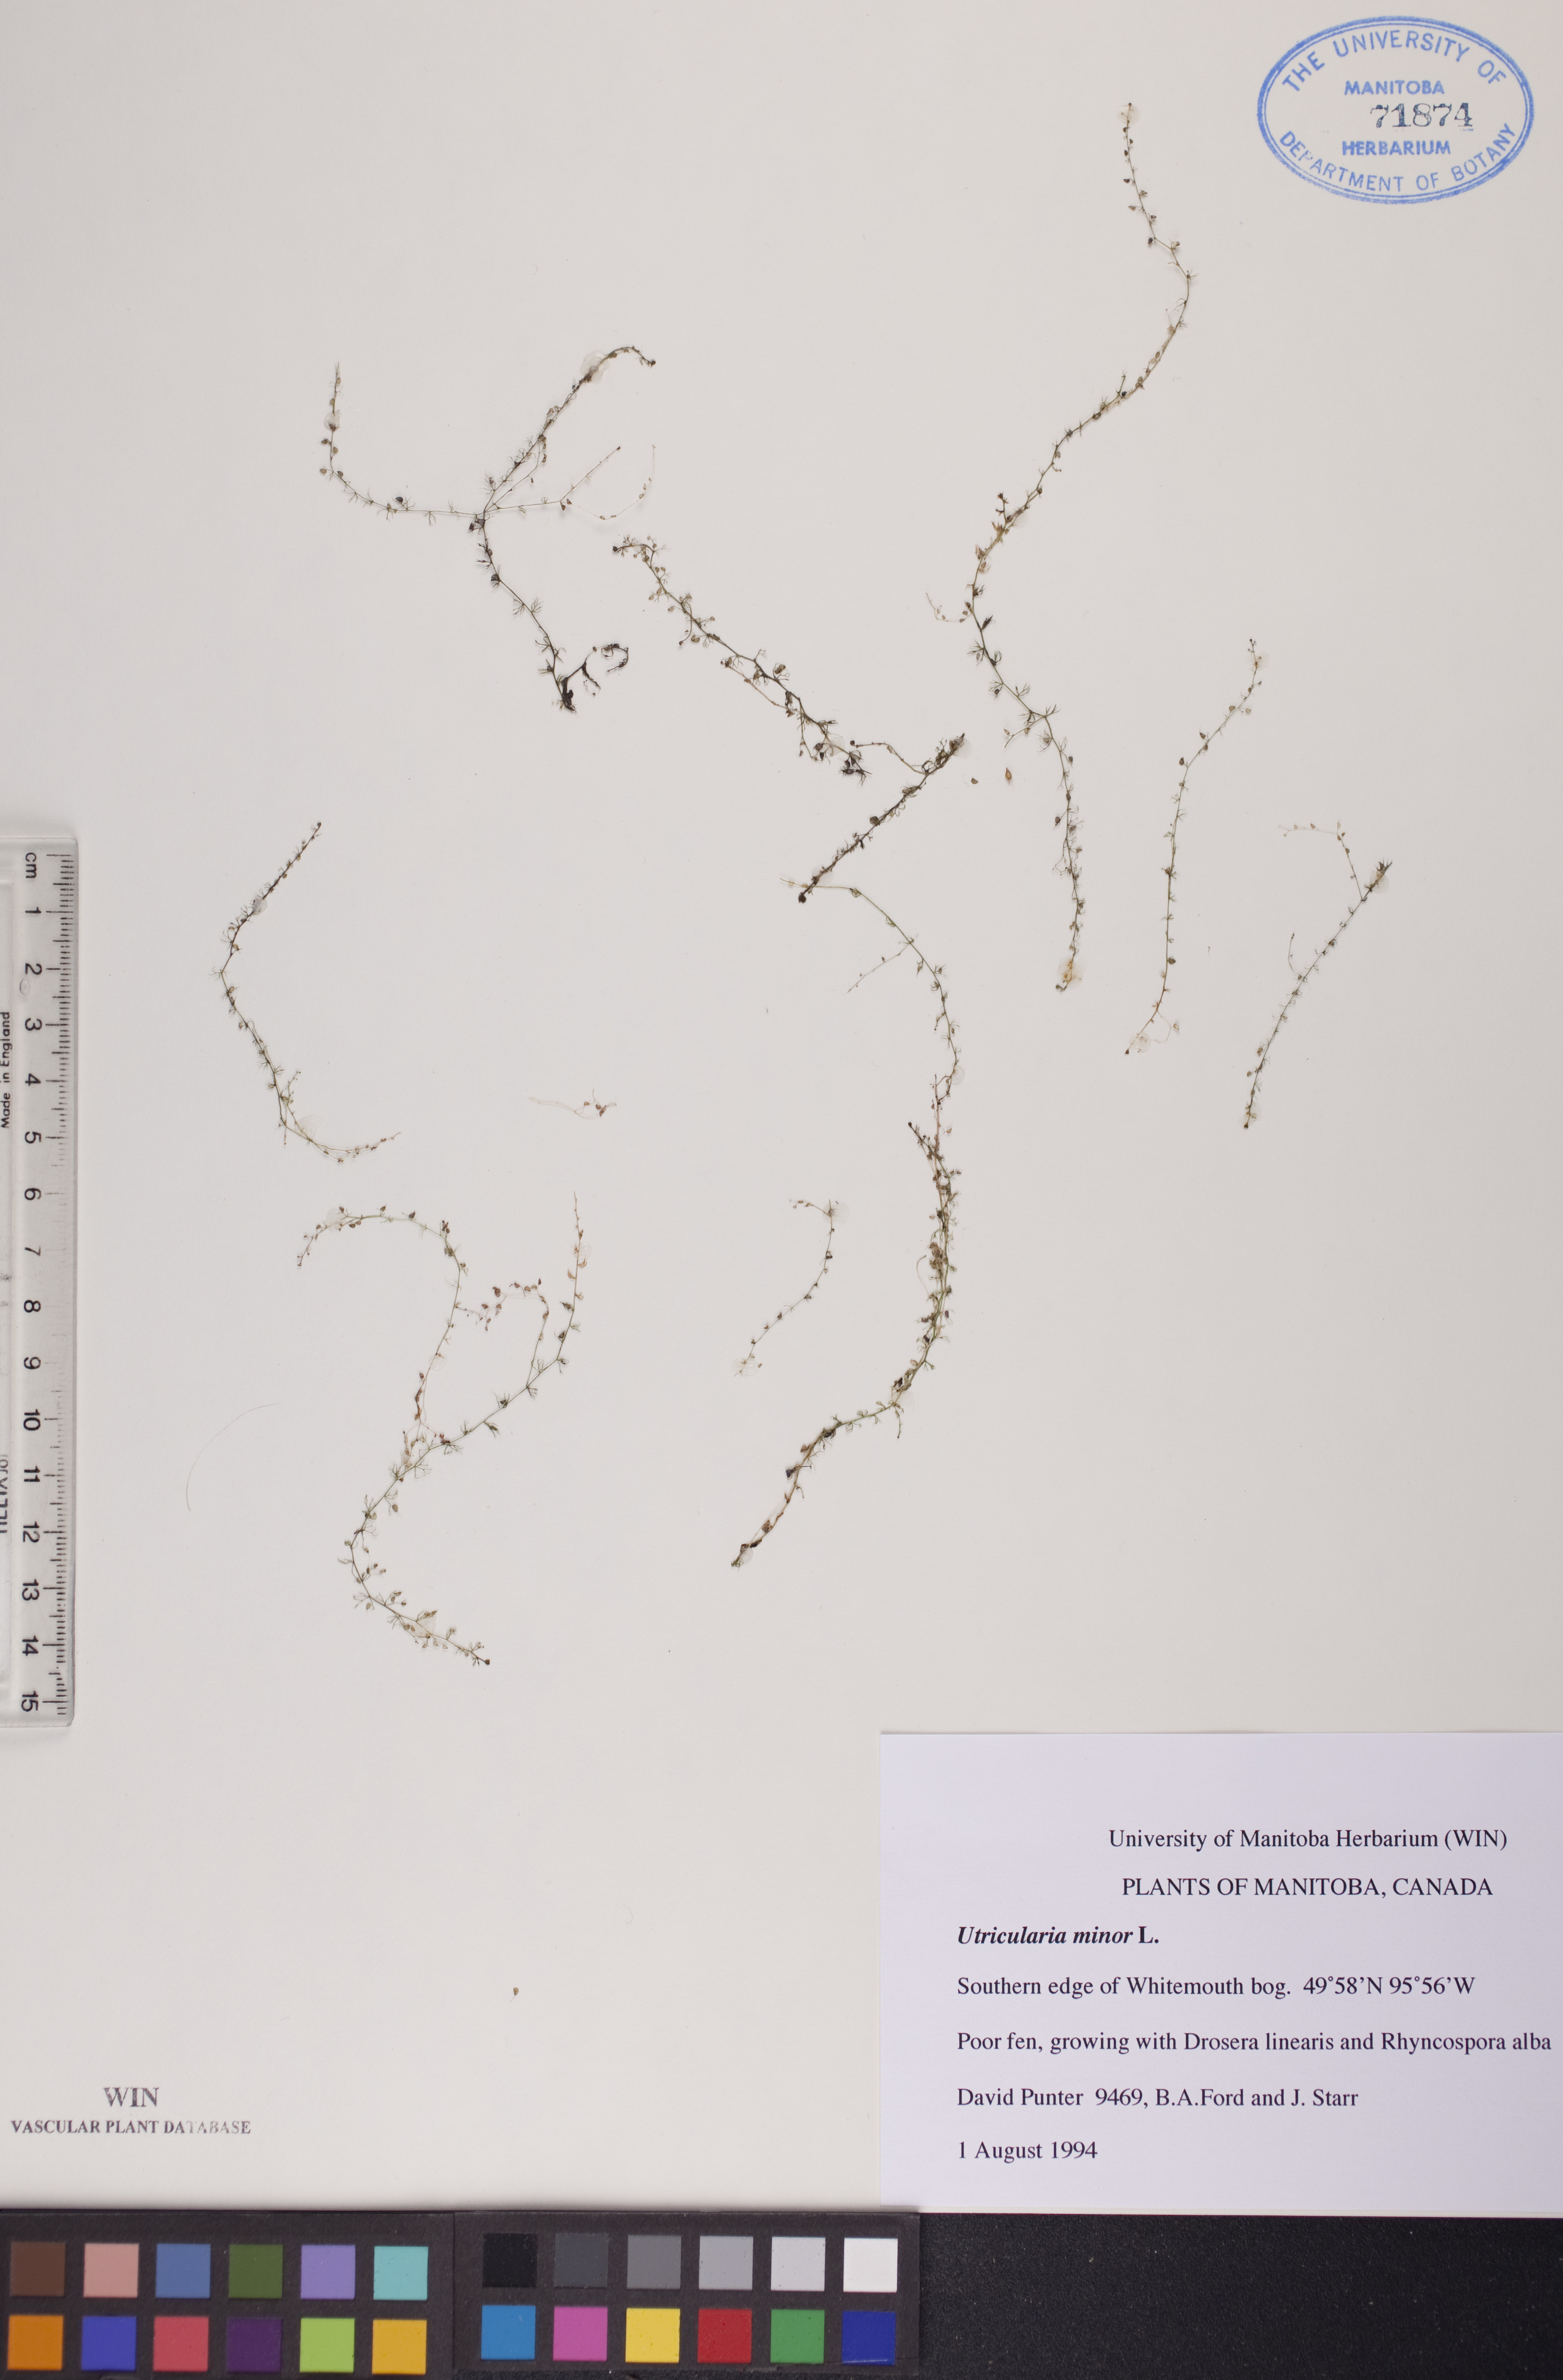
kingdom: Plantae
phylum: Tracheophyta
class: Magnoliopsida
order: Lamiales
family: Lentibulariaceae
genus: Utricularia
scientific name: Utricularia minor
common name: Lesser bladderwort
